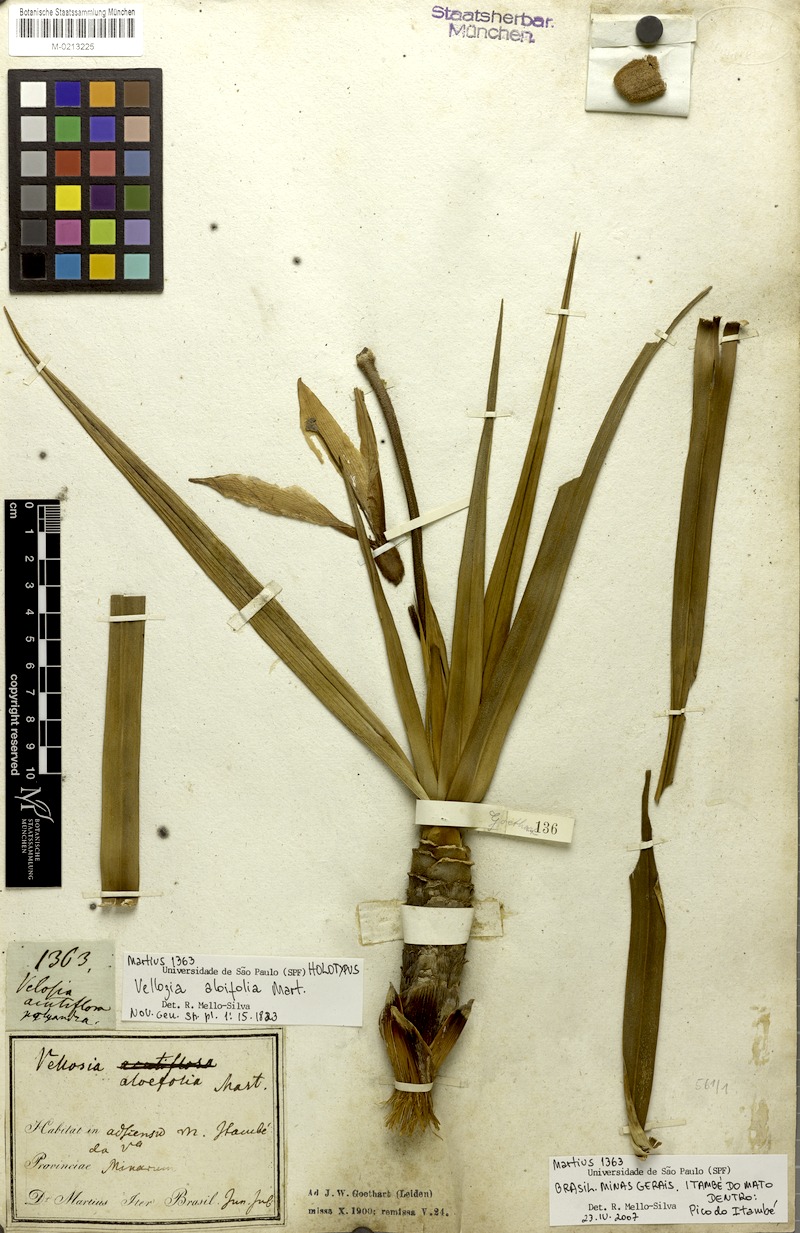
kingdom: Plantae
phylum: Tracheophyta
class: Liliopsida
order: Pandanales
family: Velloziaceae
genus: Vellozia
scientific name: Vellozia aloifolia
